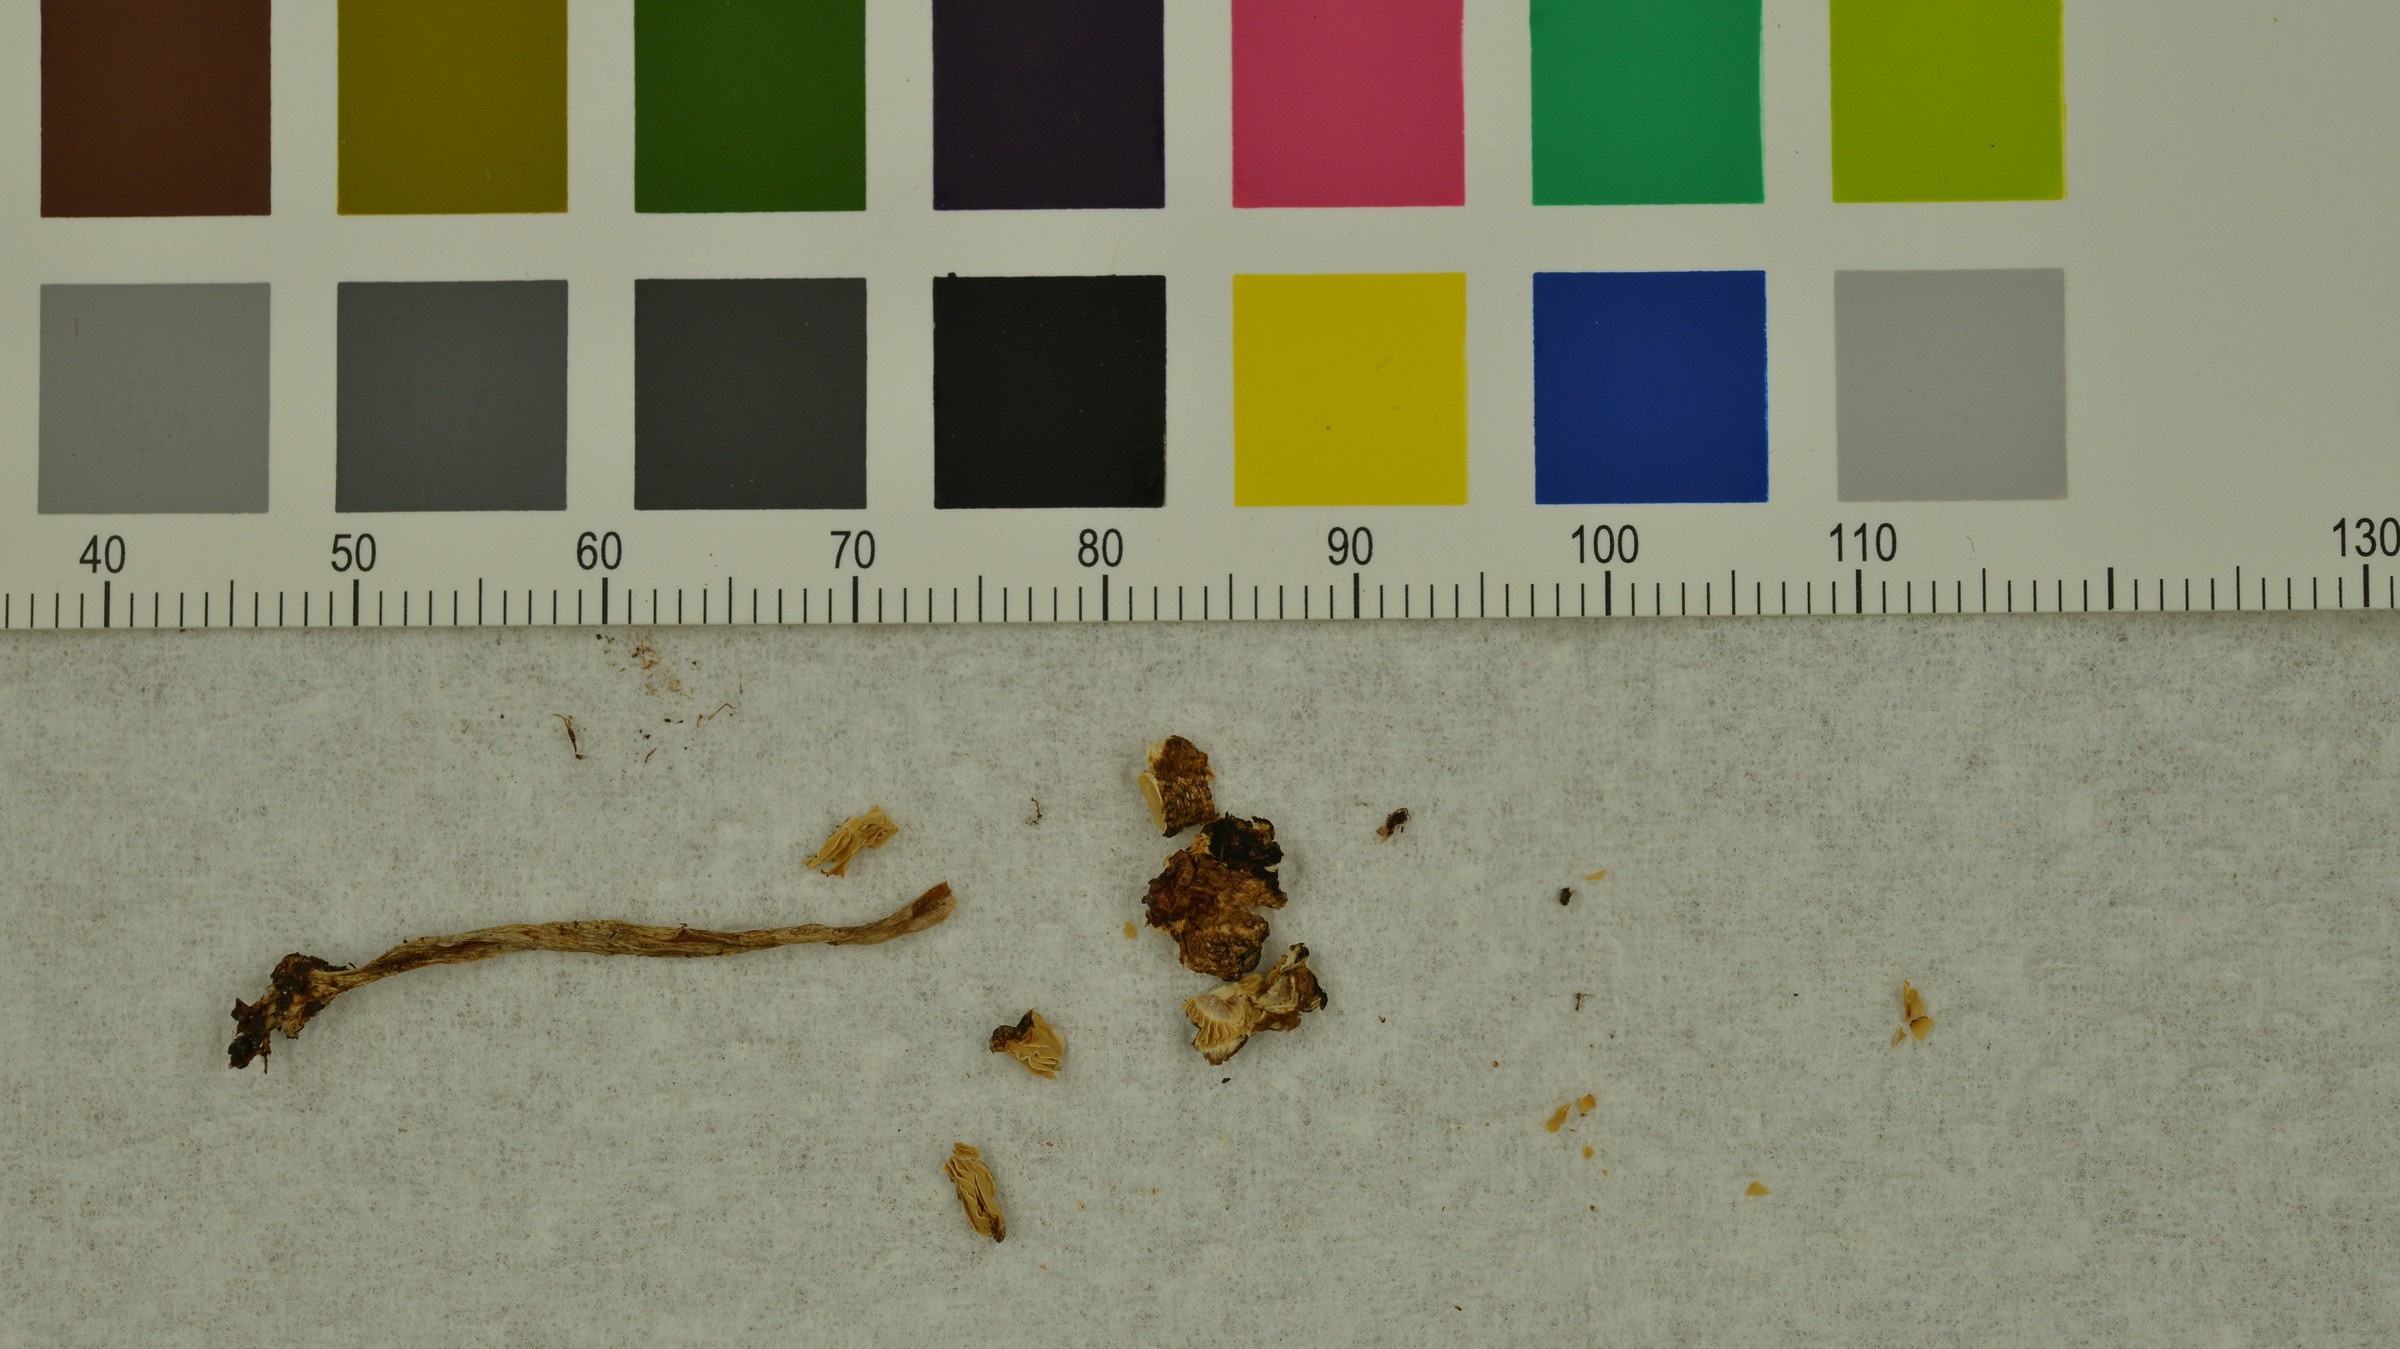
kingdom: Fungi
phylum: Basidiomycota
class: Agaricomycetes
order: Agaricales
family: Agaricaceae
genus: Lepiota
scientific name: Lepiota boudieri
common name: Girdled dapperling
